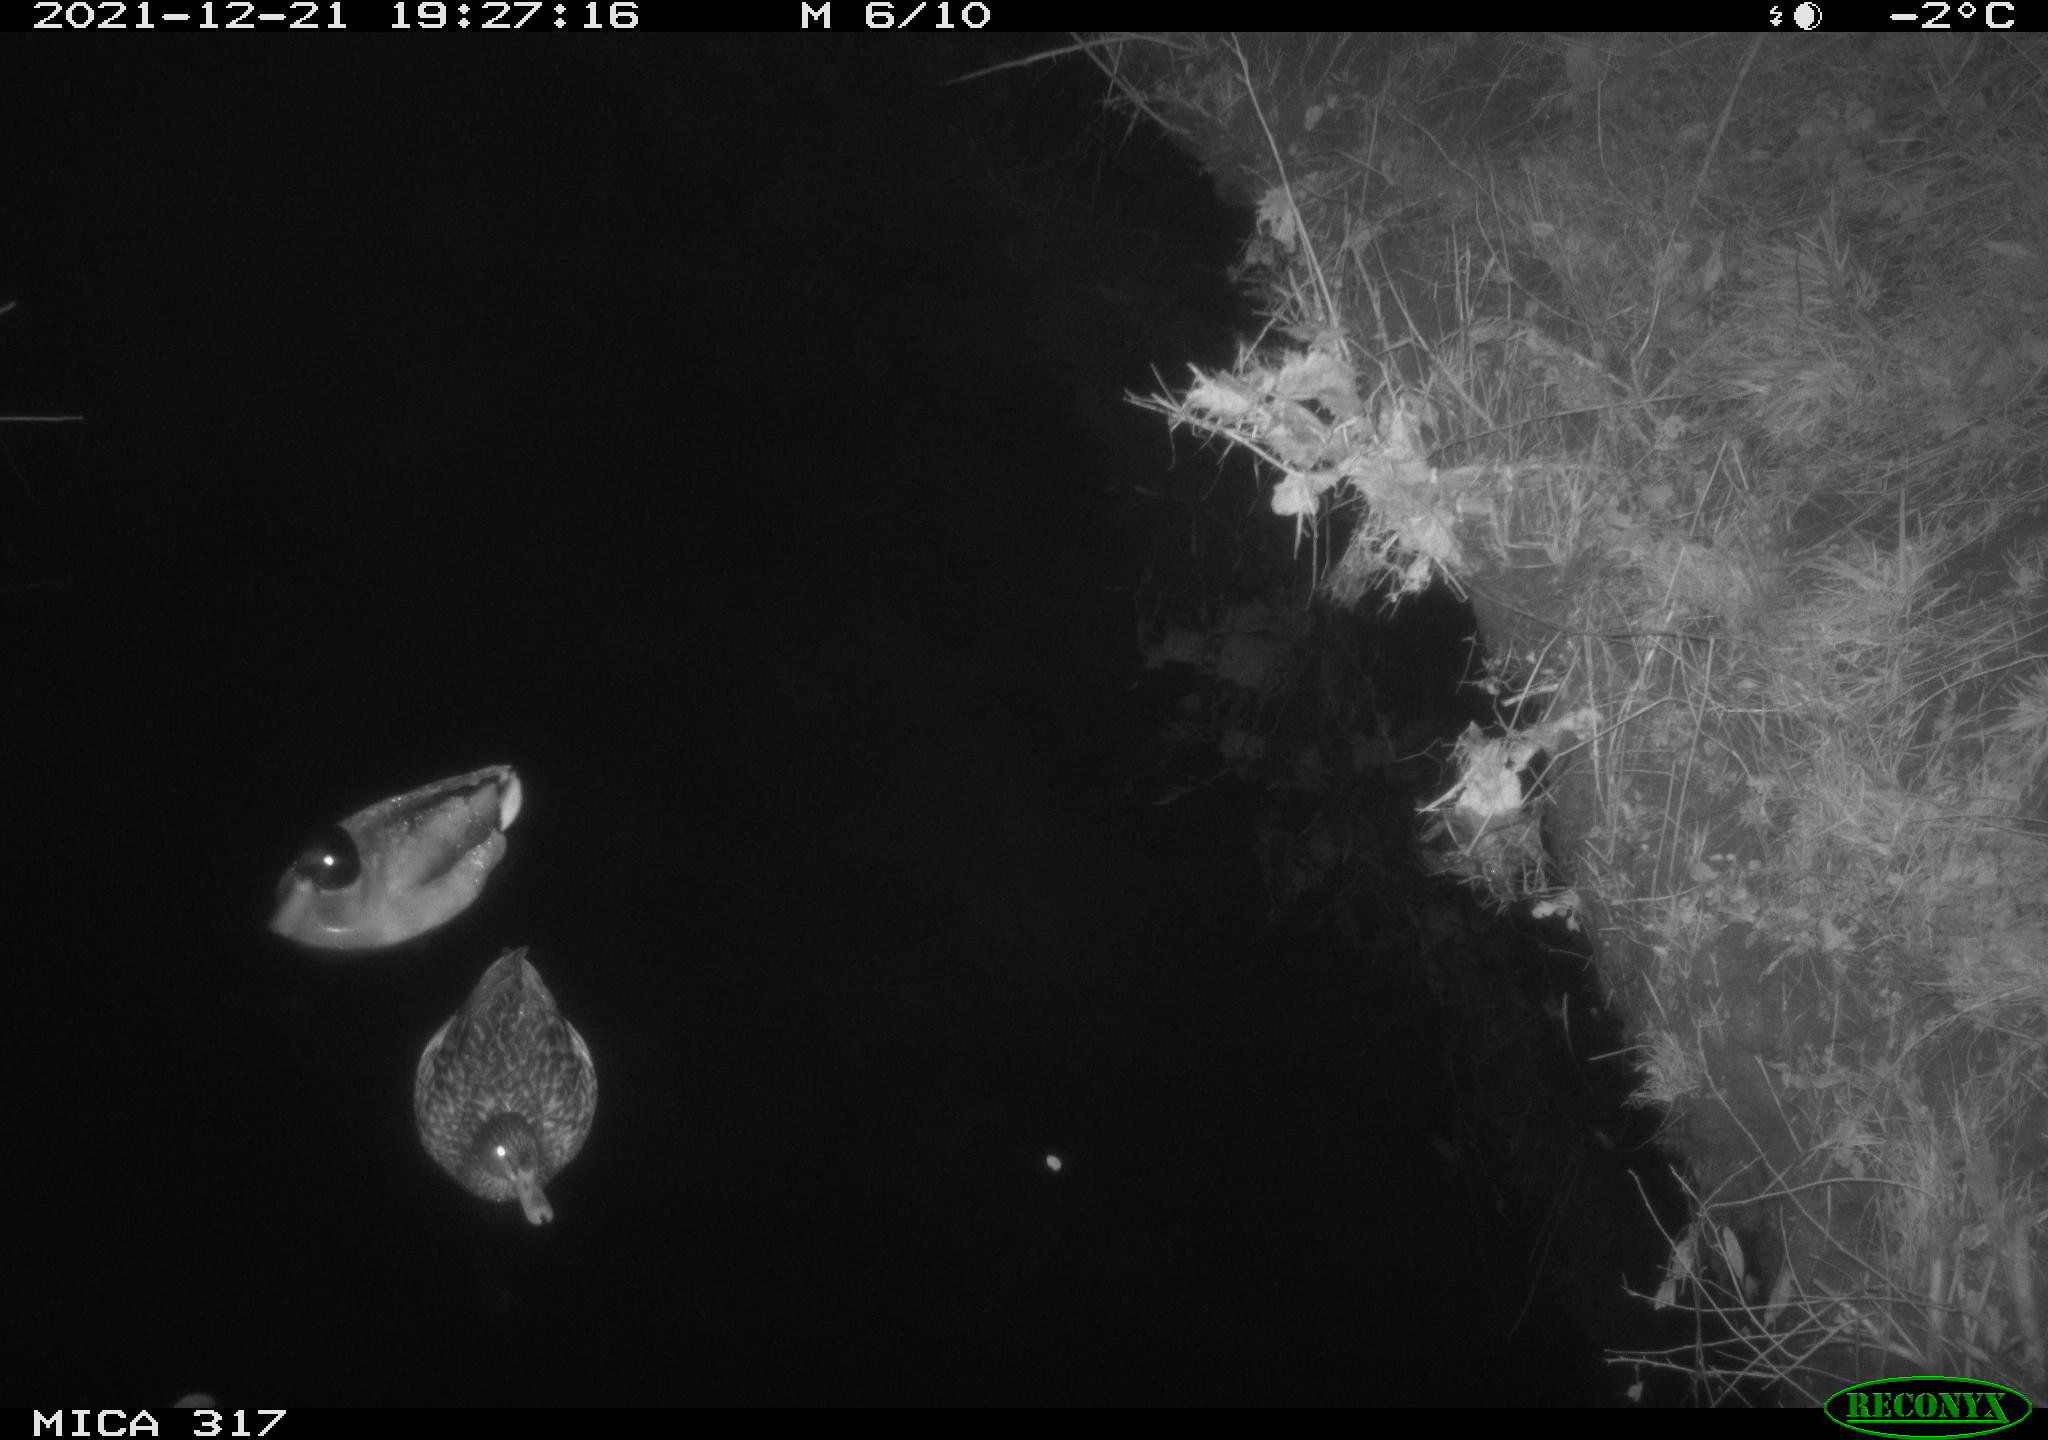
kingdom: Animalia
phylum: Chordata
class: Aves
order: Anseriformes
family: Anatidae
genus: Anas
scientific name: Anas platyrhynchos
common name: Mallard
